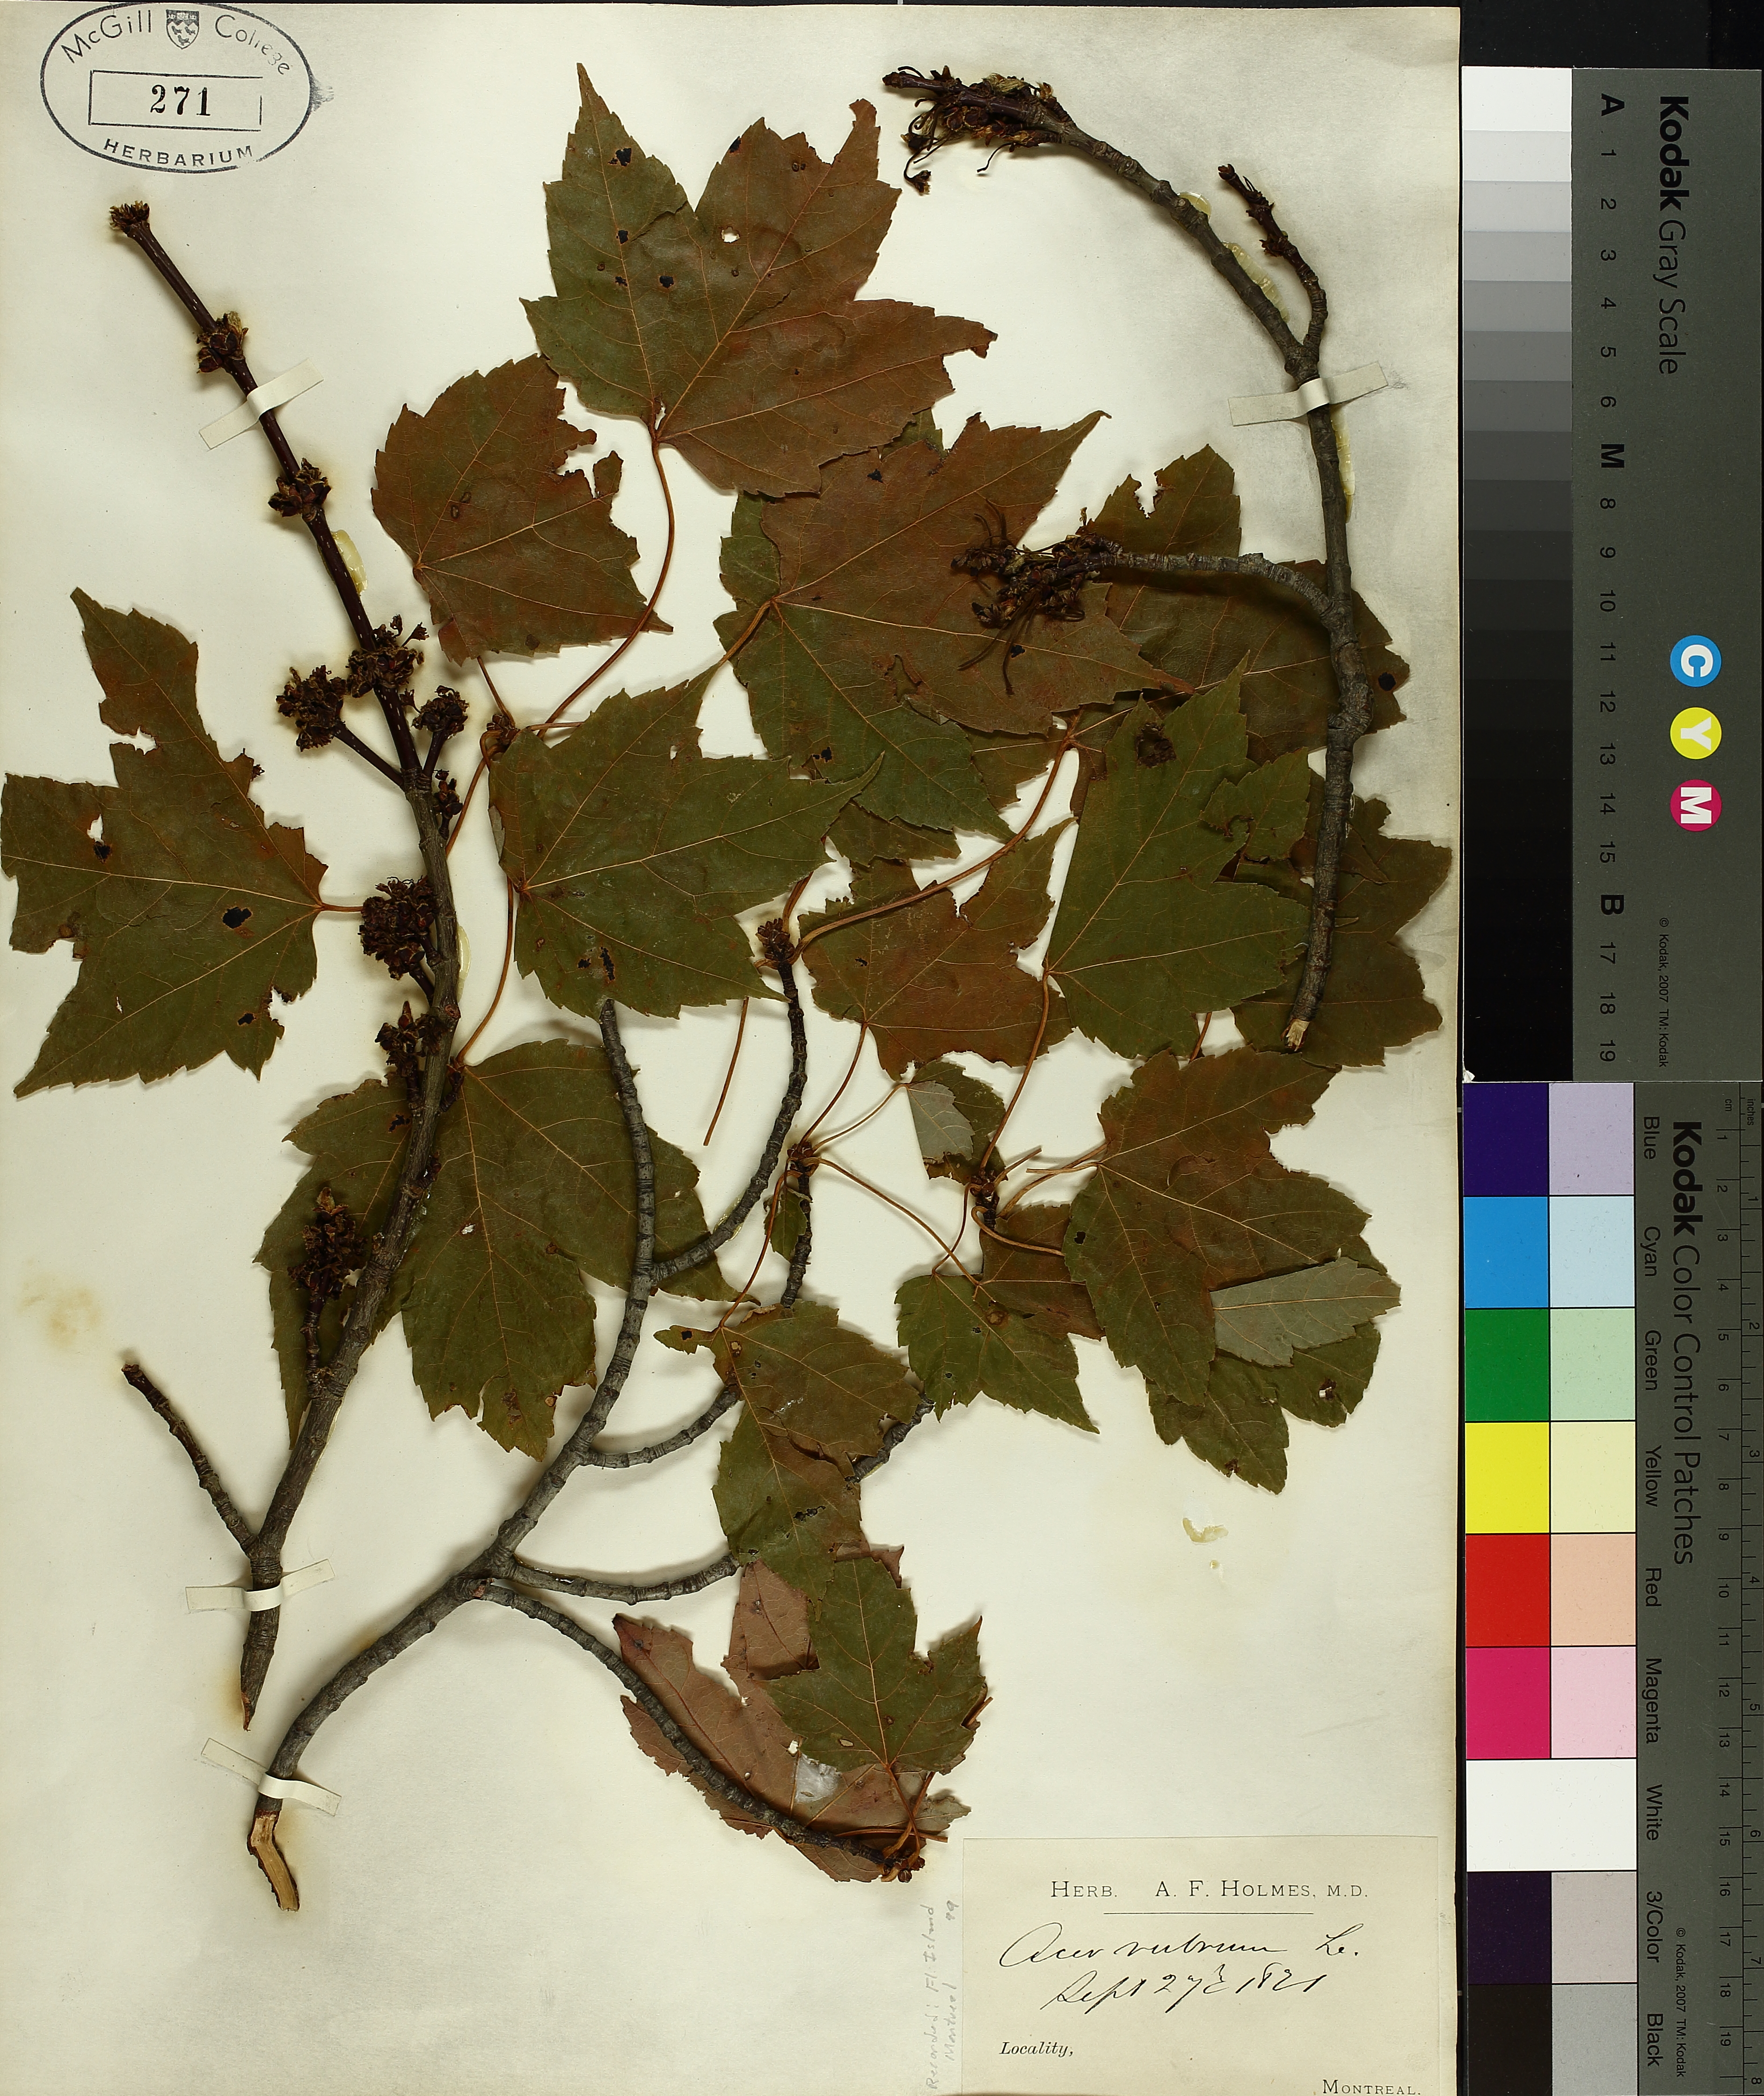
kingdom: Plantae
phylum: Tracheophyta
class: Magnoliopsida
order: Sapindales
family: Sapindaceae
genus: Acer
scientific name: Acer rubrum
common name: Red maple
